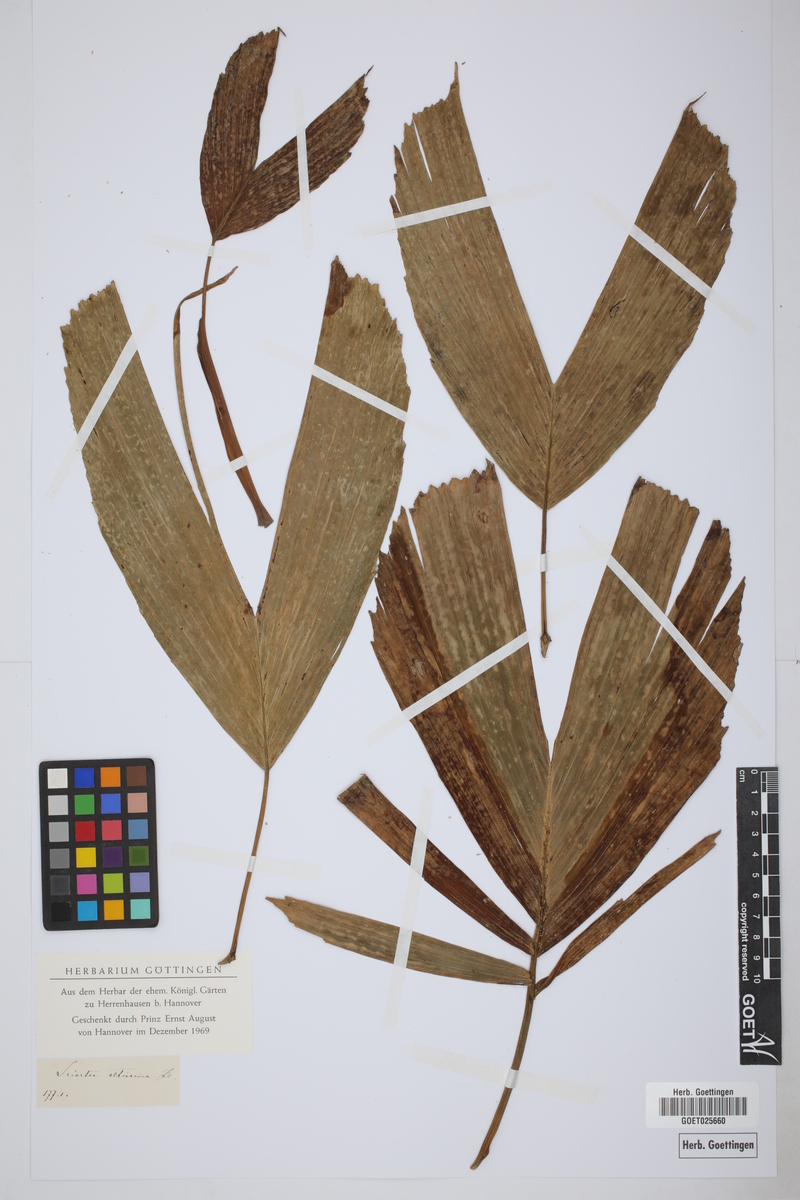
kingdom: Plantae
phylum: Tracheophyta
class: Liliopsida
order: Arecales
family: Arecaceae
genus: Dictyocaryum
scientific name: Dictyocaryum fuscum
